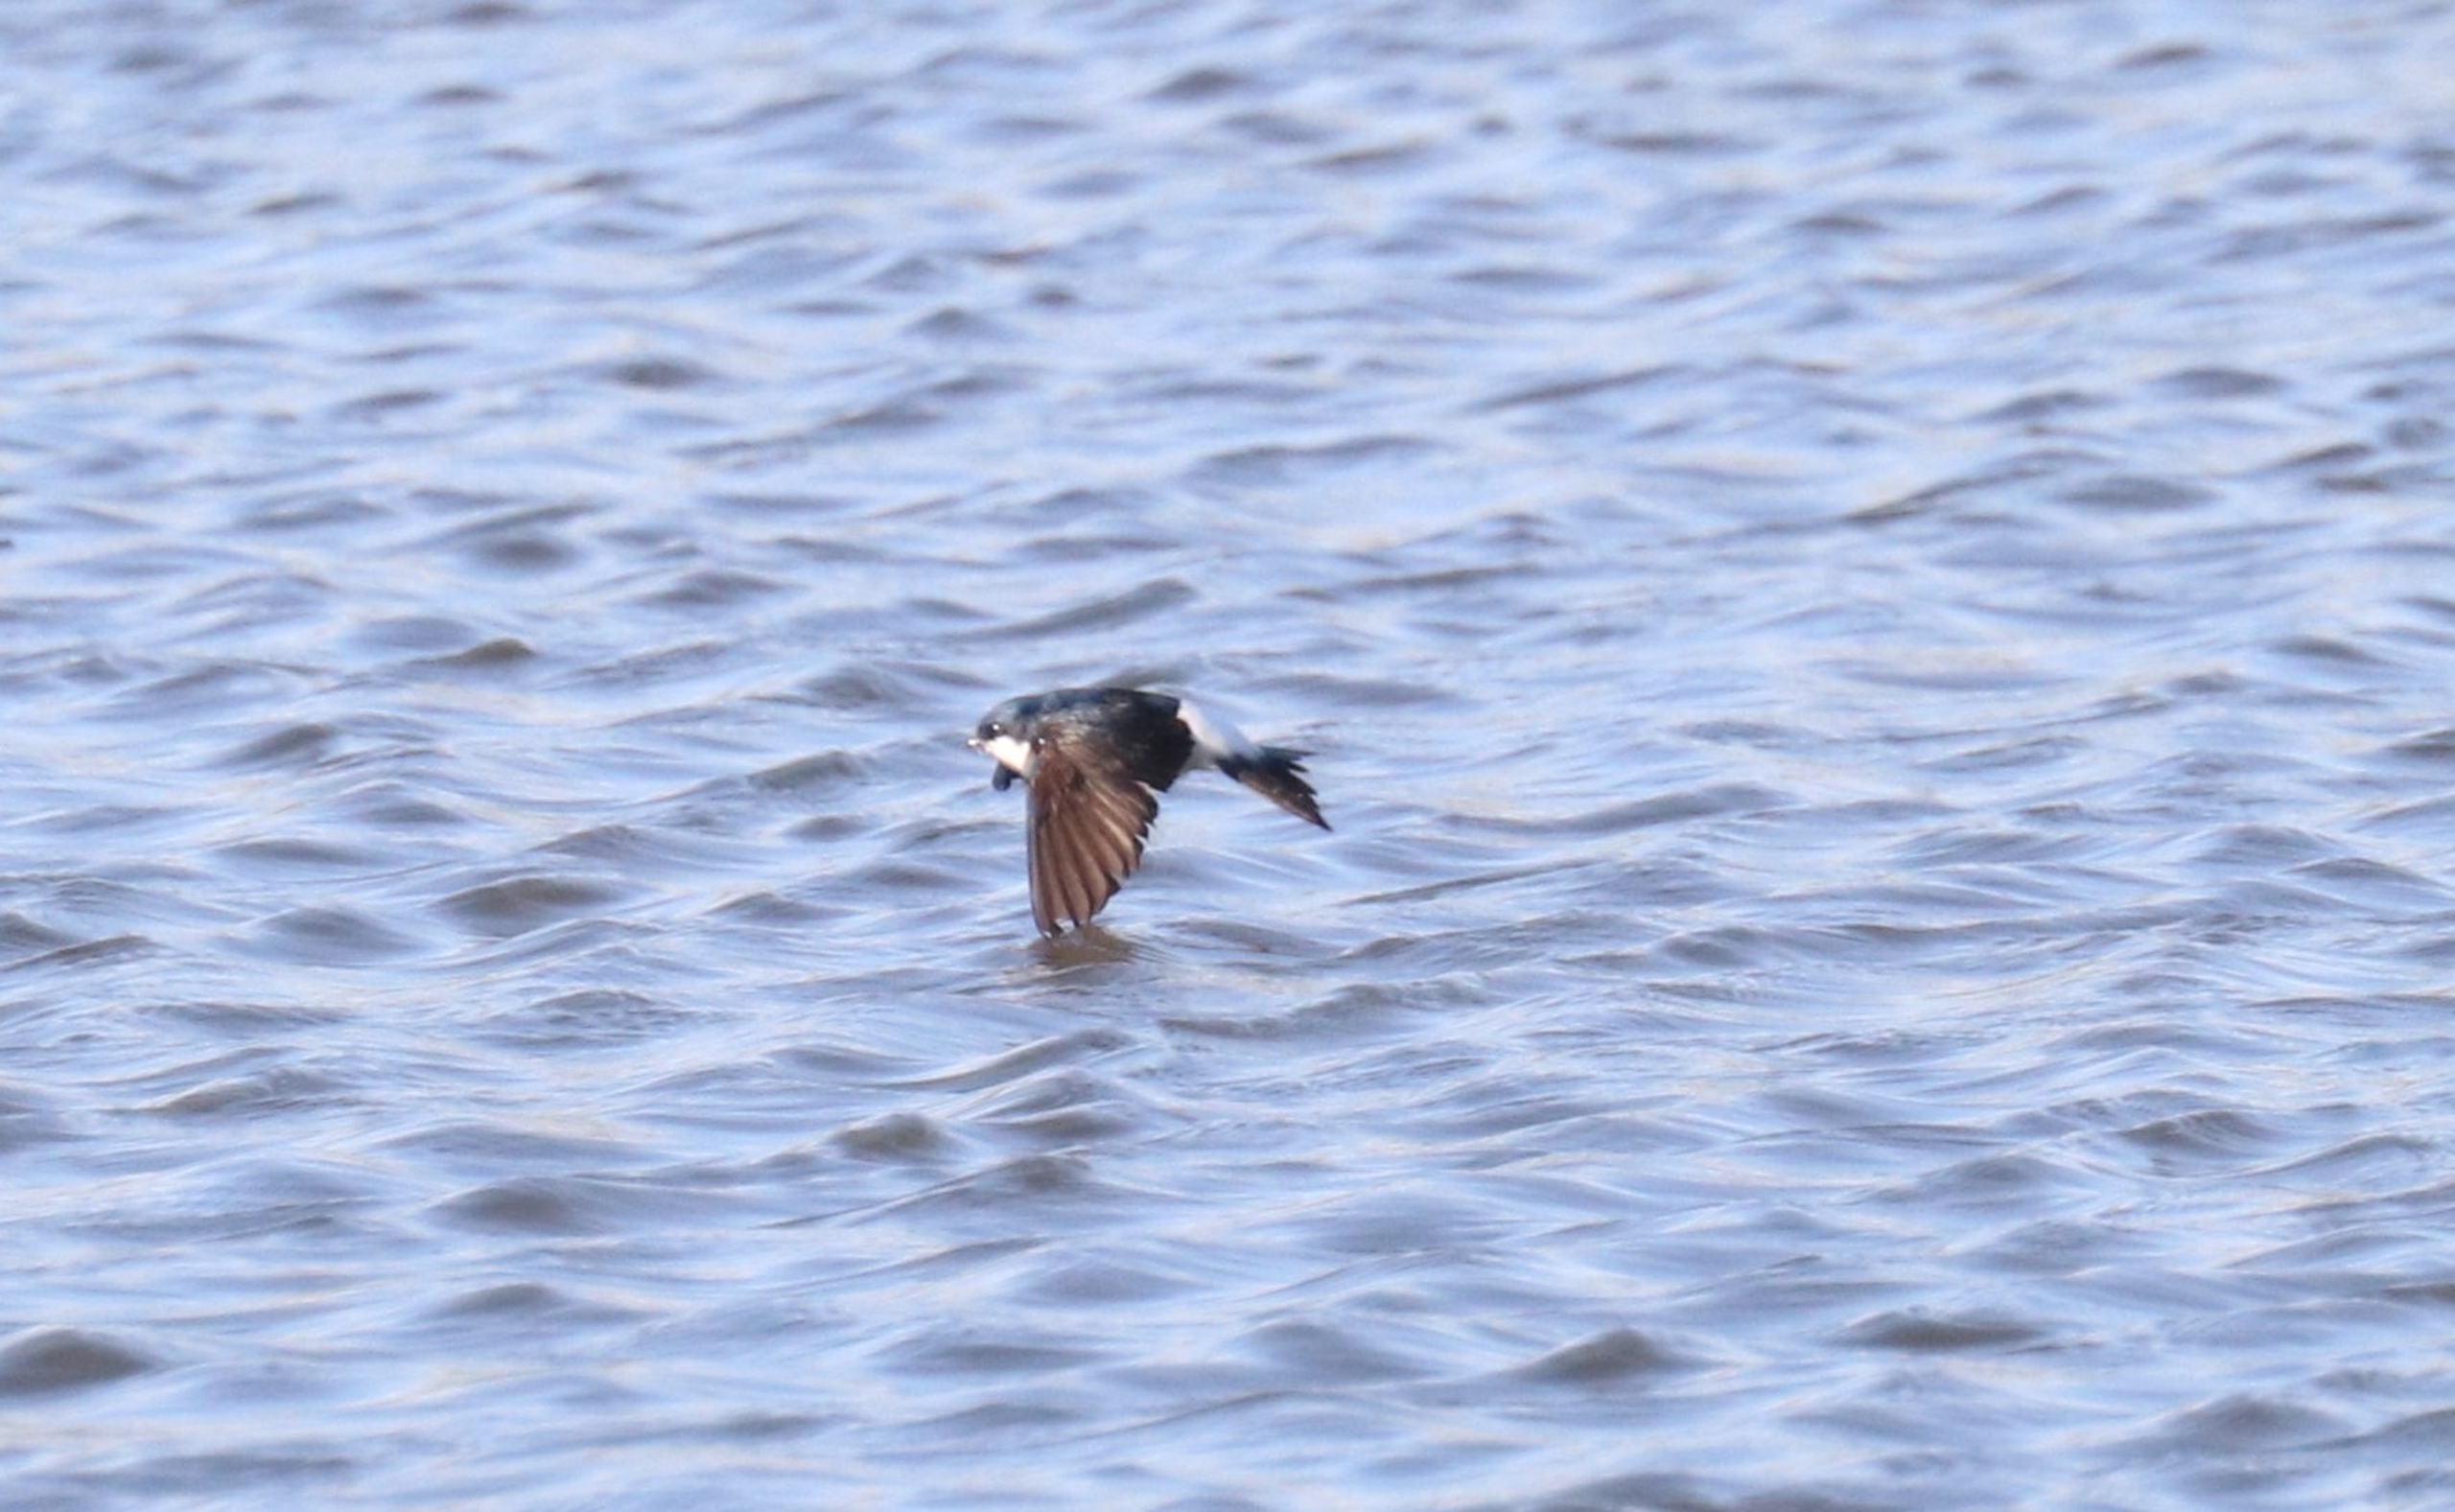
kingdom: Animalia
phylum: Chordata
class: Aves
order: Passeriformes
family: Hirundinidae
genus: Delichon
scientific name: Delichon urbicum
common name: Bysvale
